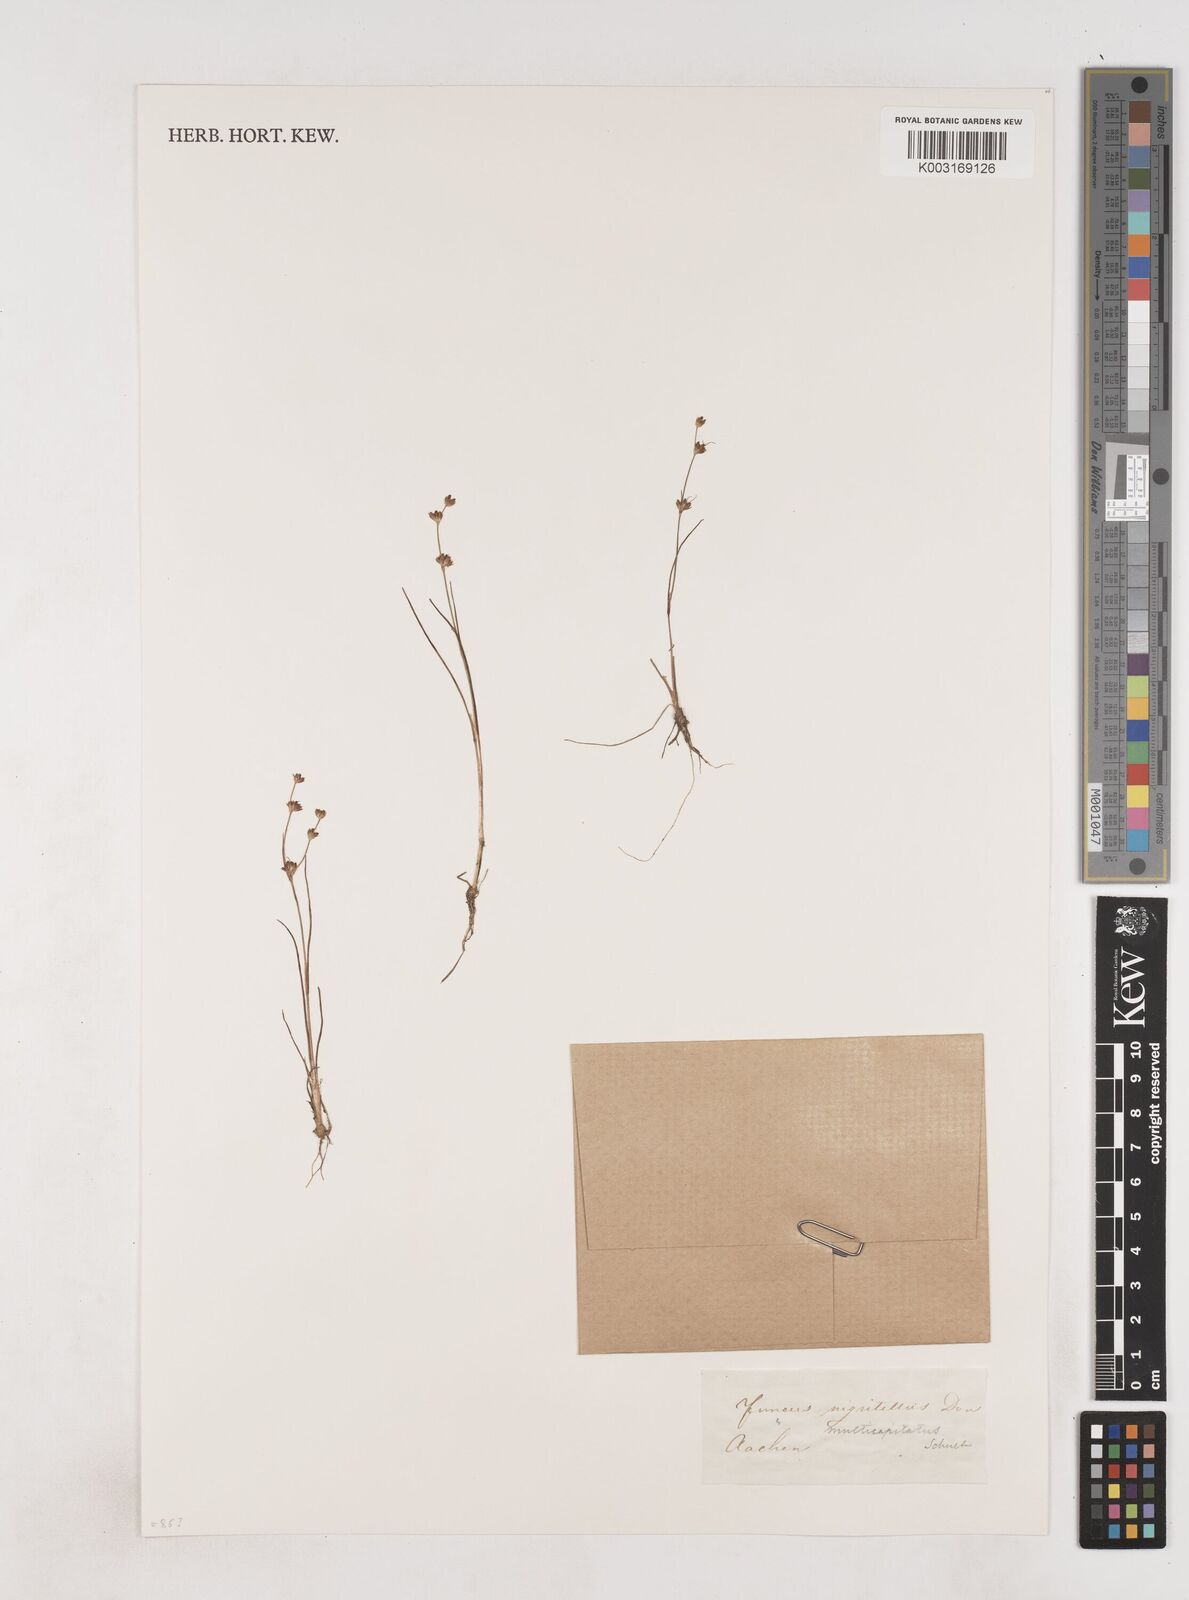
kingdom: Plantae
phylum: Tracheophyta
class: Liliopsida
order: Poales
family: Juncaceae
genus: Juncus
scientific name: Juncus bulbosus
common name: Bulbous rush
